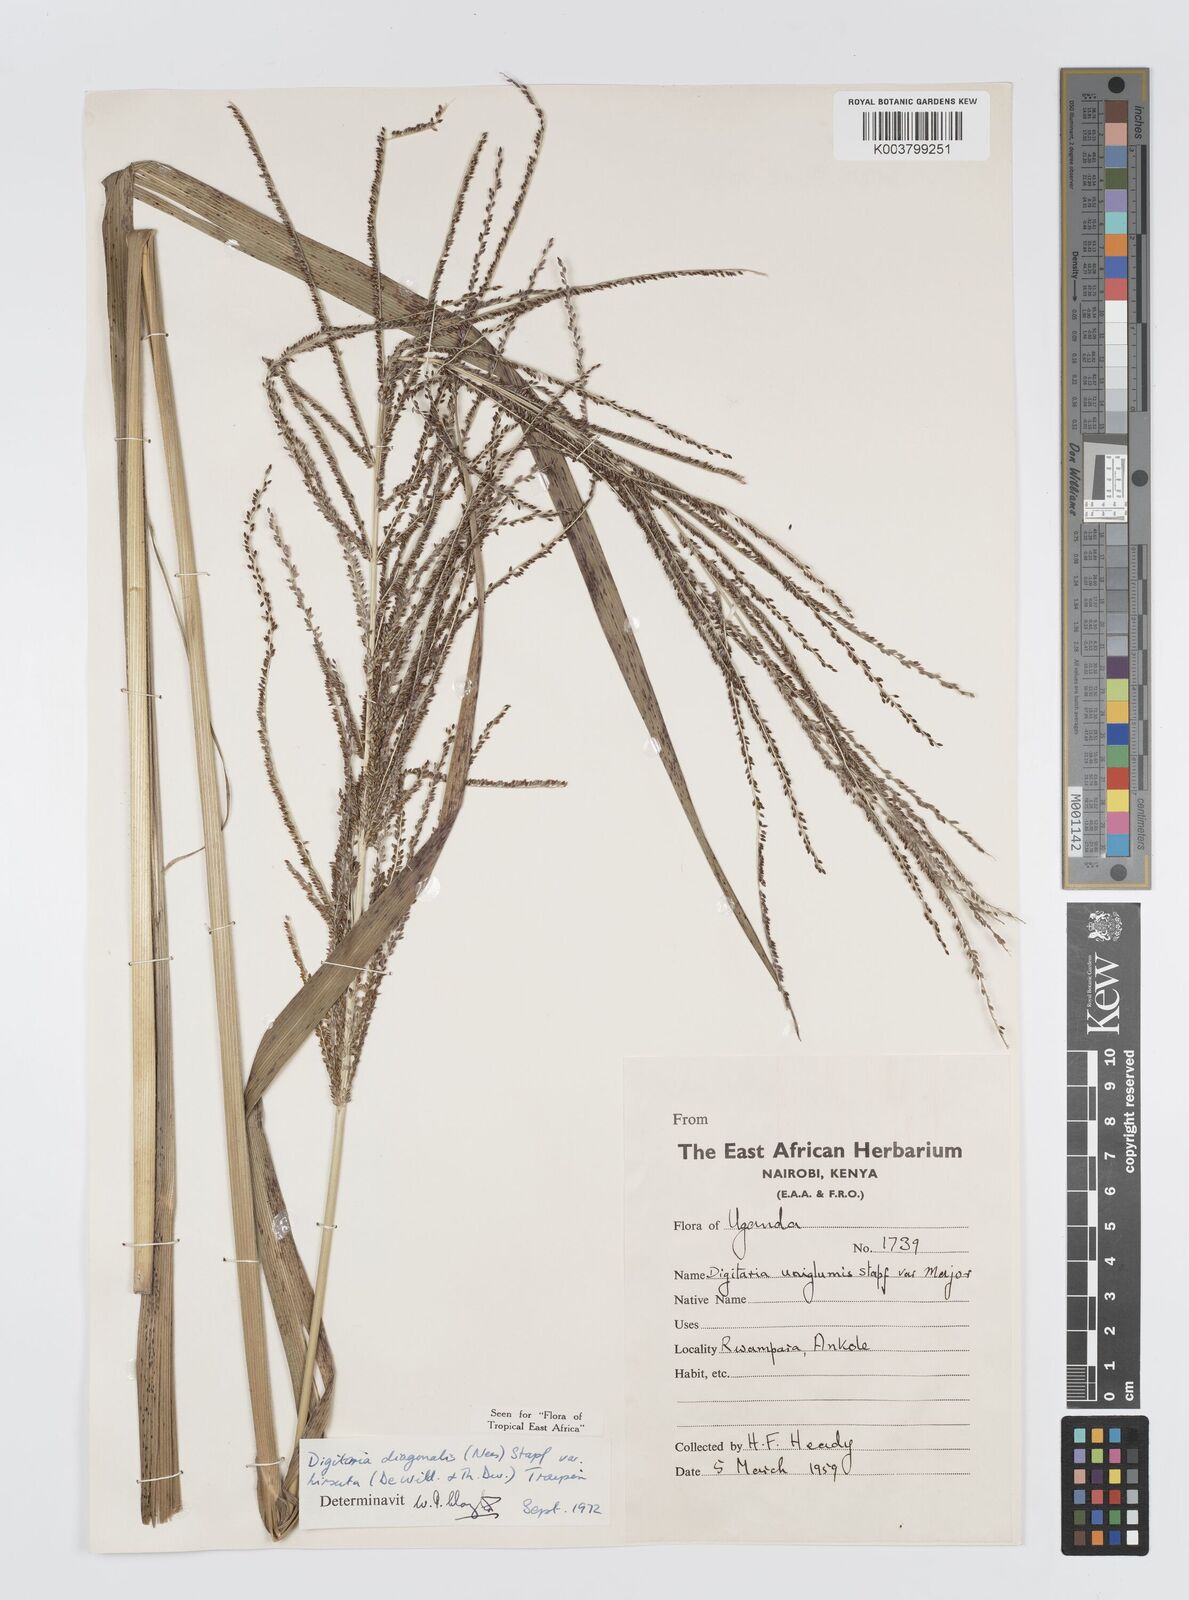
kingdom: Plantae
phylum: Tracheophyta
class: Liliopsida
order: Poales
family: Poaceae
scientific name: Poaceae
